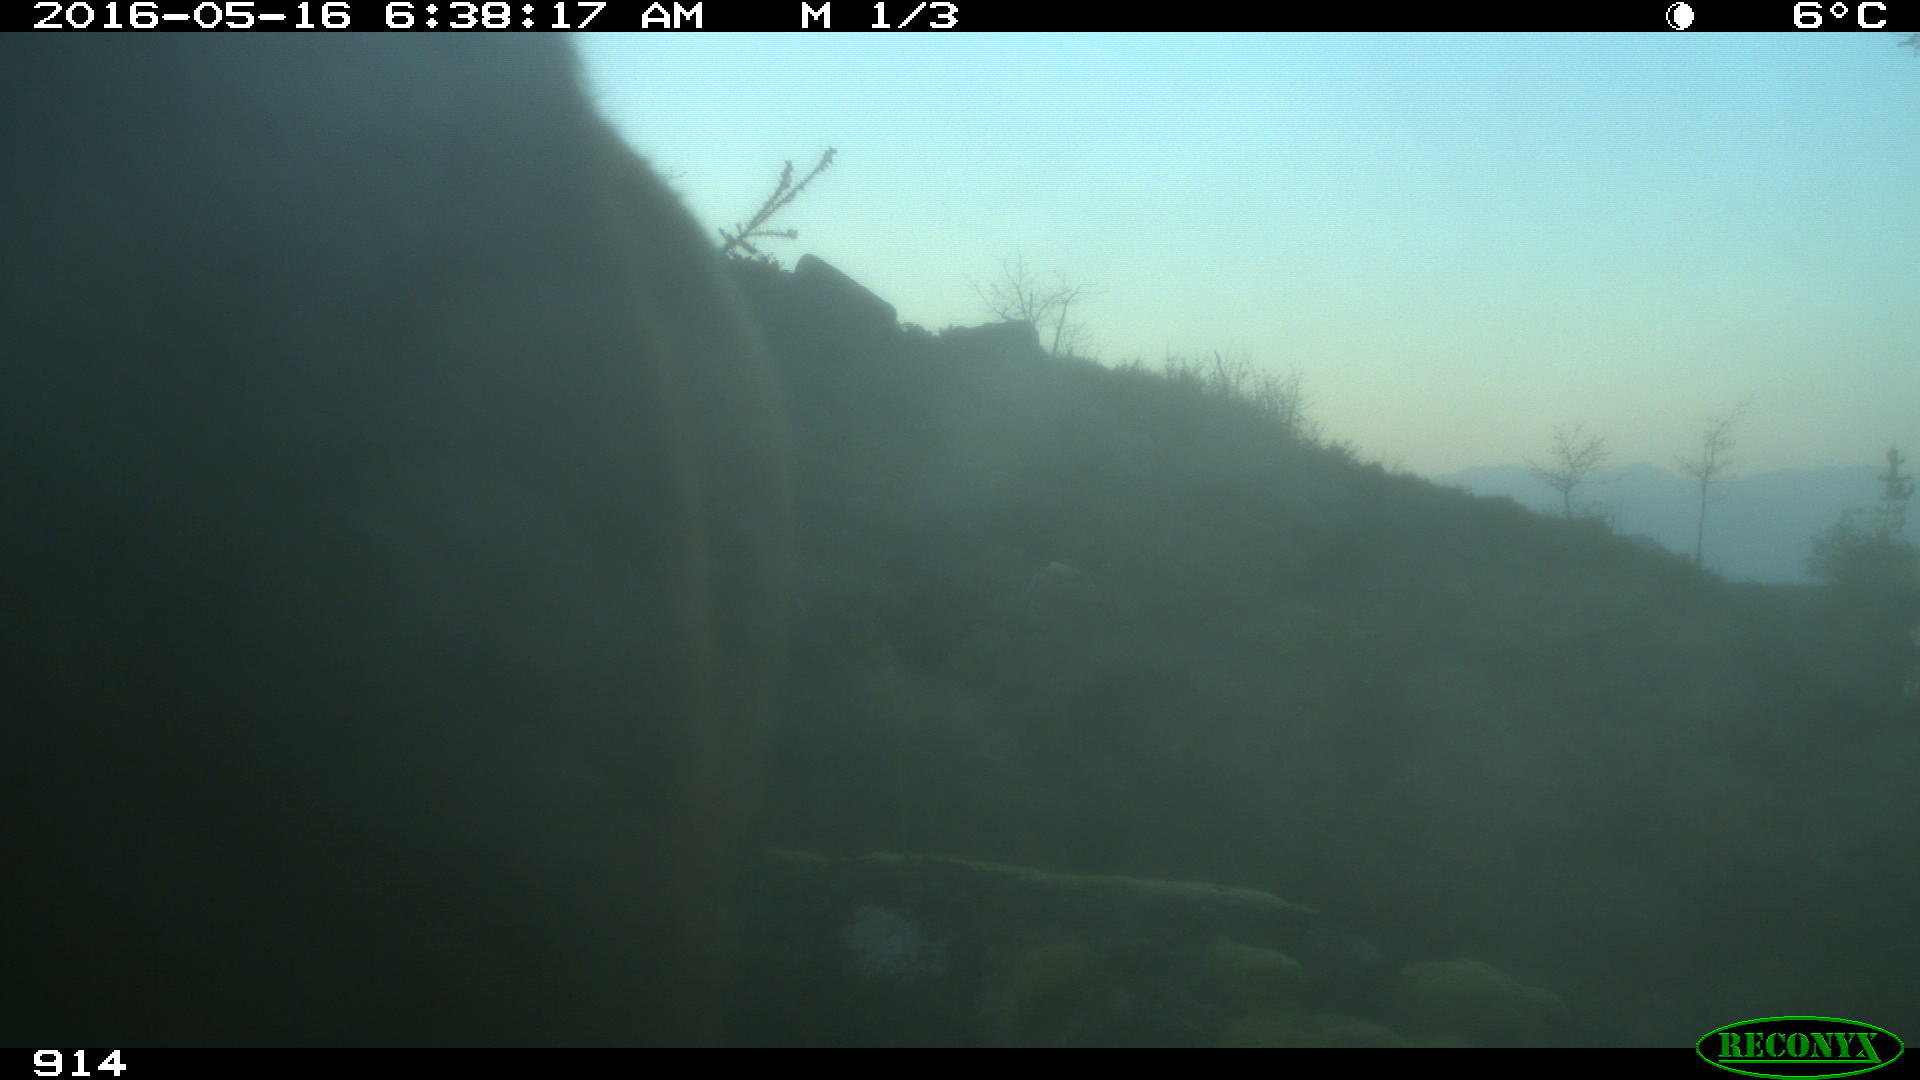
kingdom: Animalia
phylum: Chordata
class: Mammalia
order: Artiodactyla
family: Bovidae
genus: Bos
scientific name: Bos taurus
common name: Domesticated cattle
